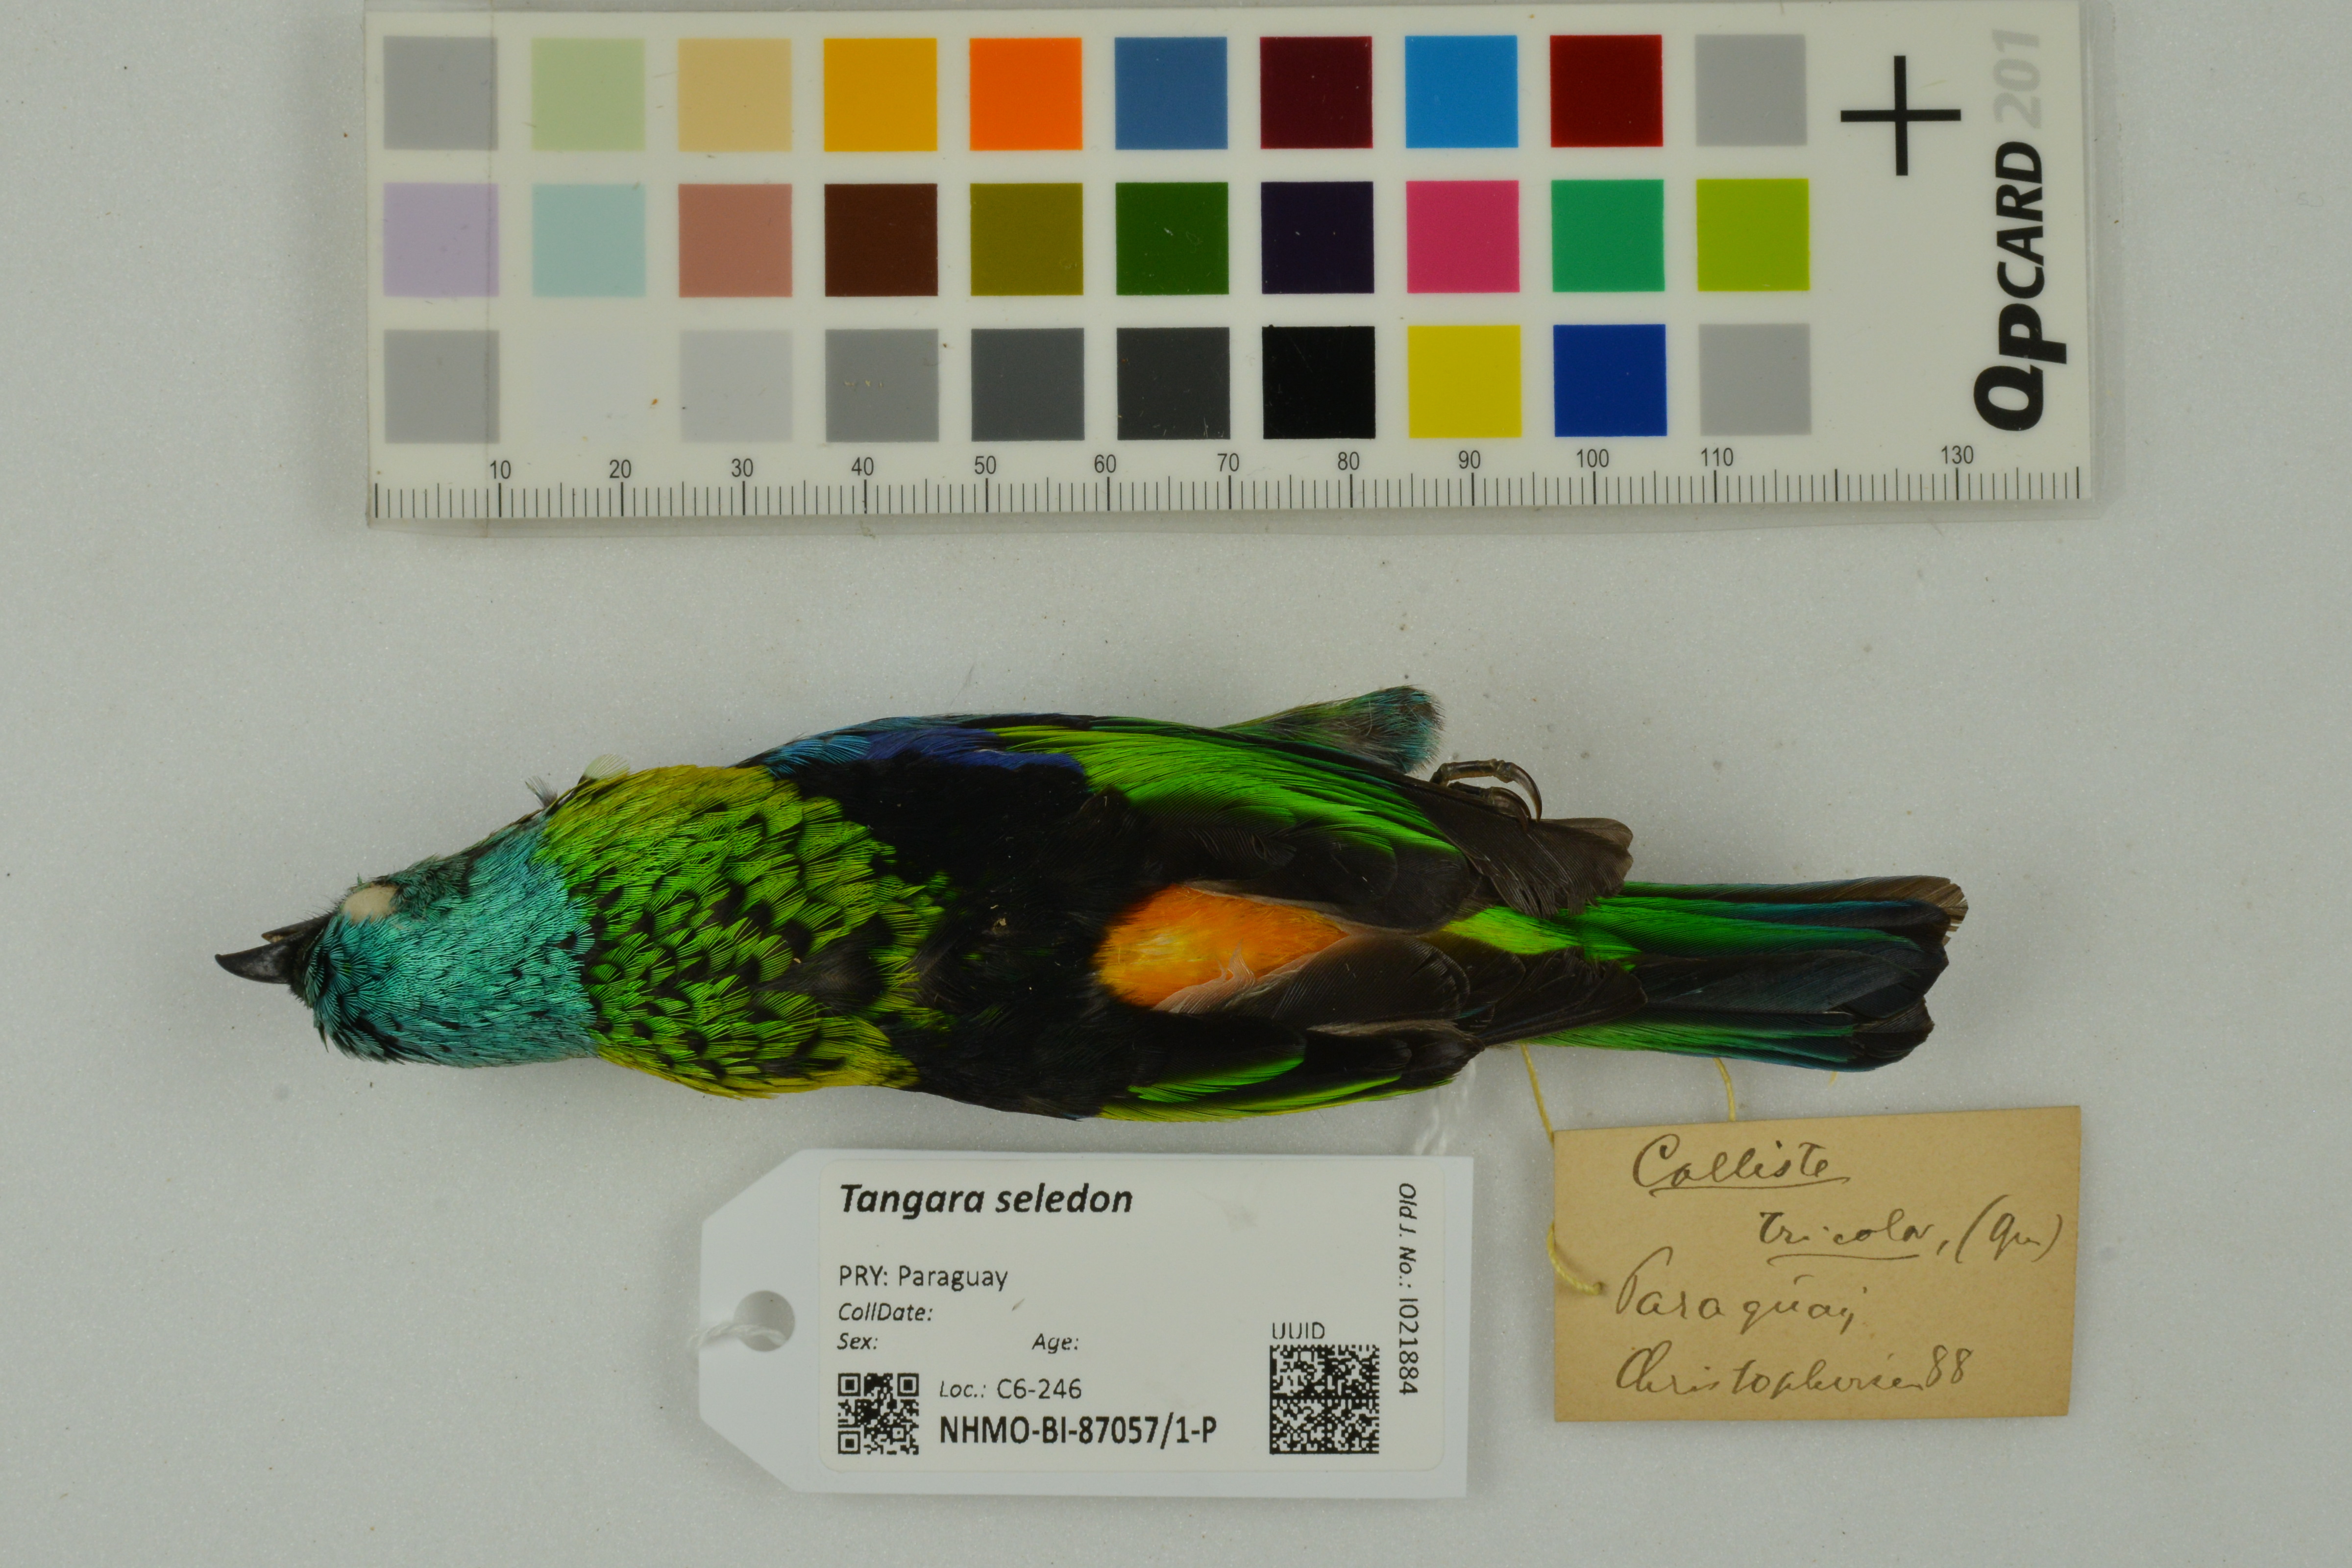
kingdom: Animalia
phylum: Chordata
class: Aves
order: Passeriformes
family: Thraupidae
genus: Tangara
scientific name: Tangara seledon
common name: Green-headed tanager
